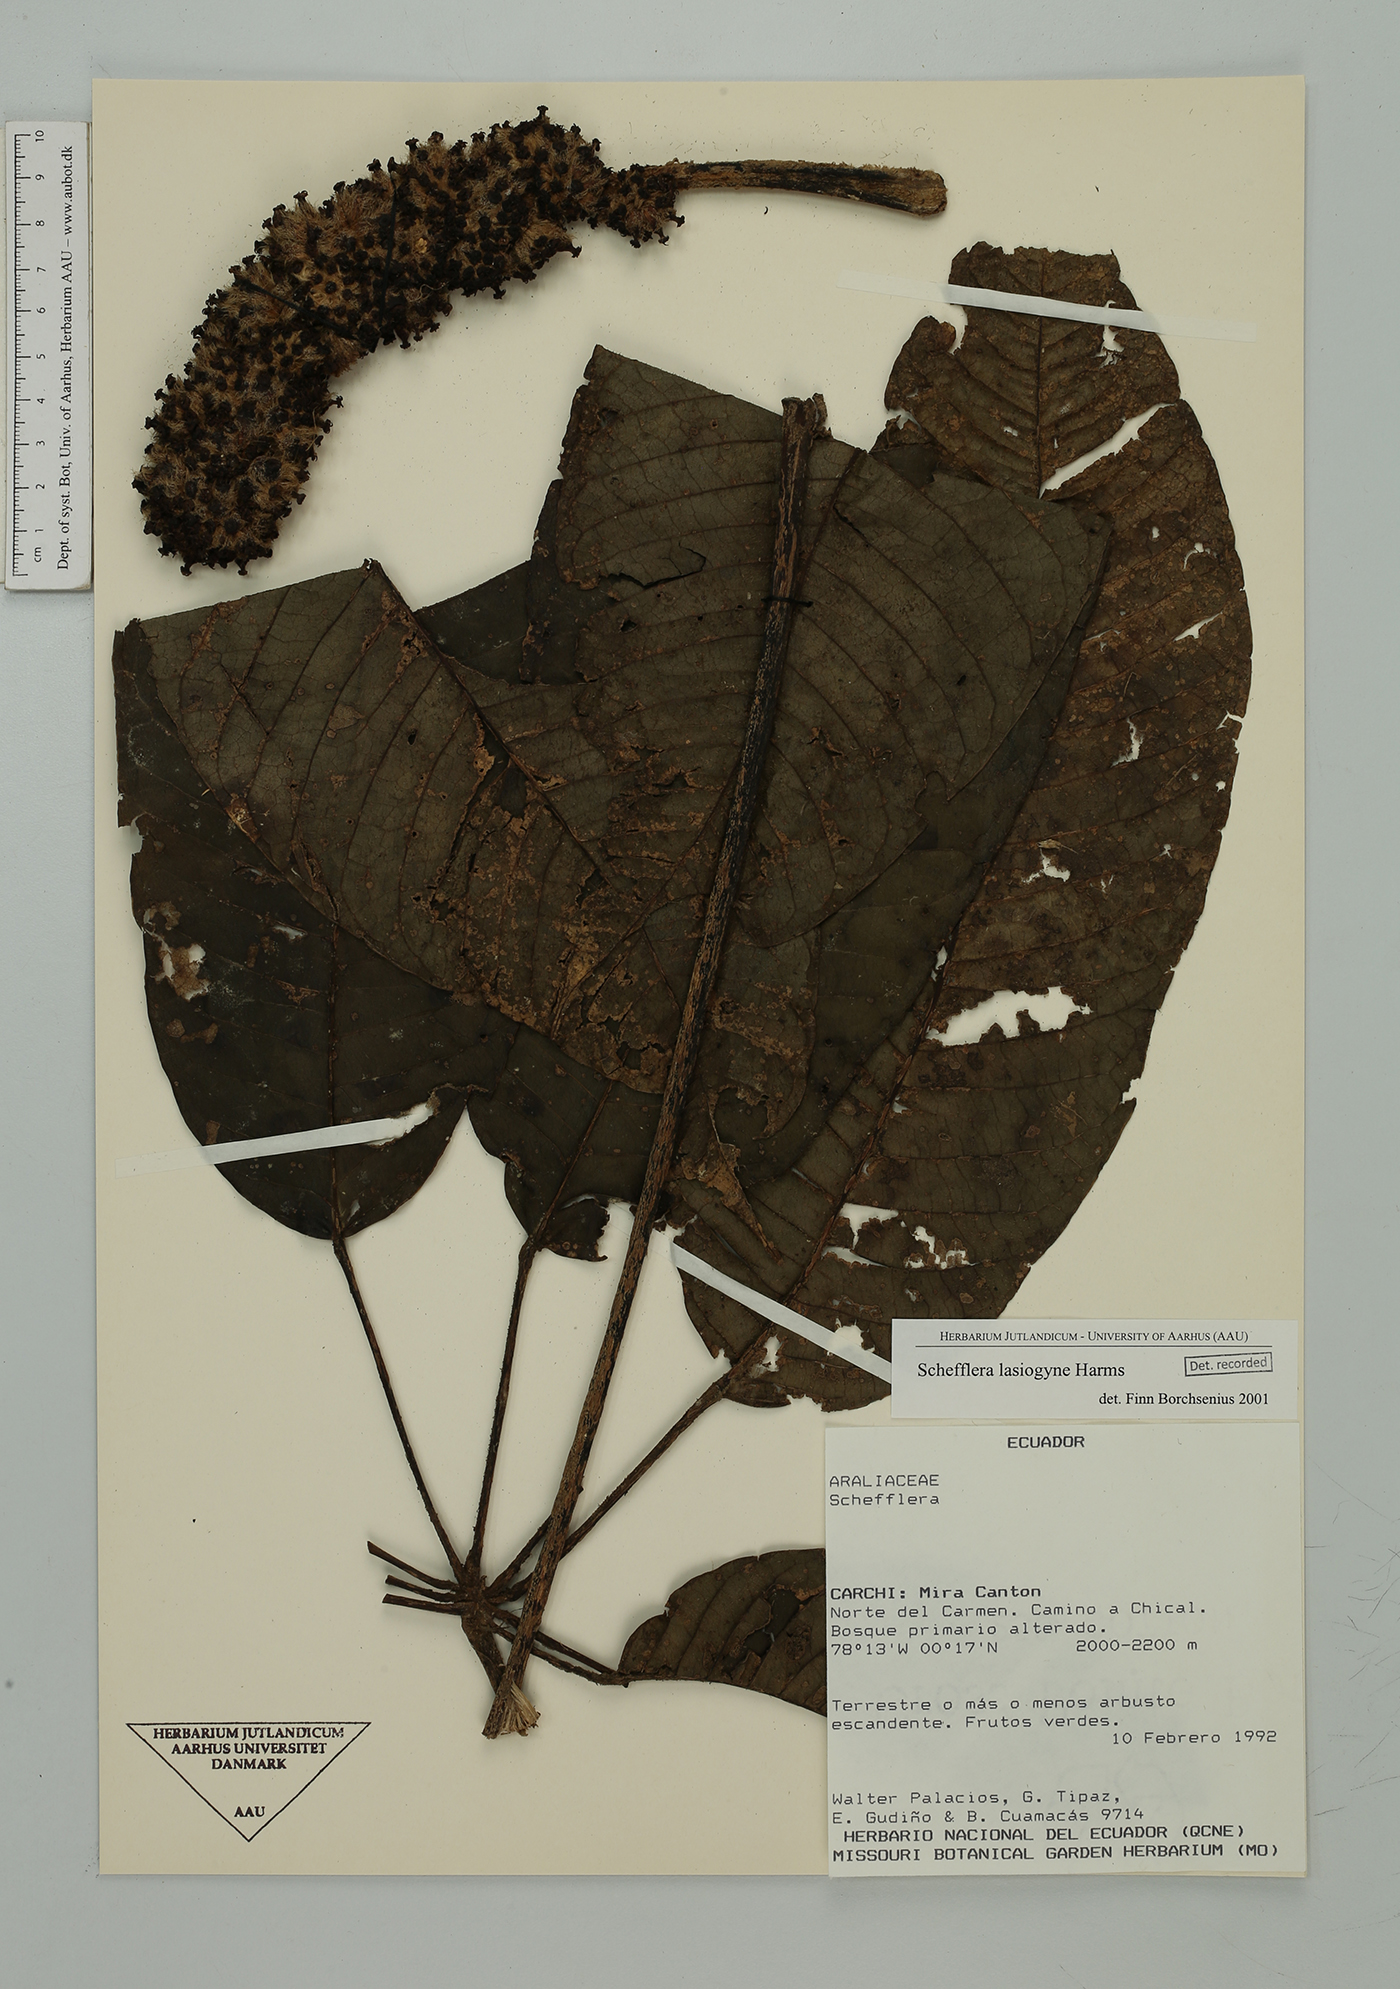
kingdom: Plantae
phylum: Tracheophyta
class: Magnoliopsida
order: Apiales
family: Araliaceae
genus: Sciodaphyllum
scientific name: Sciodaphyllum lasiogyne
